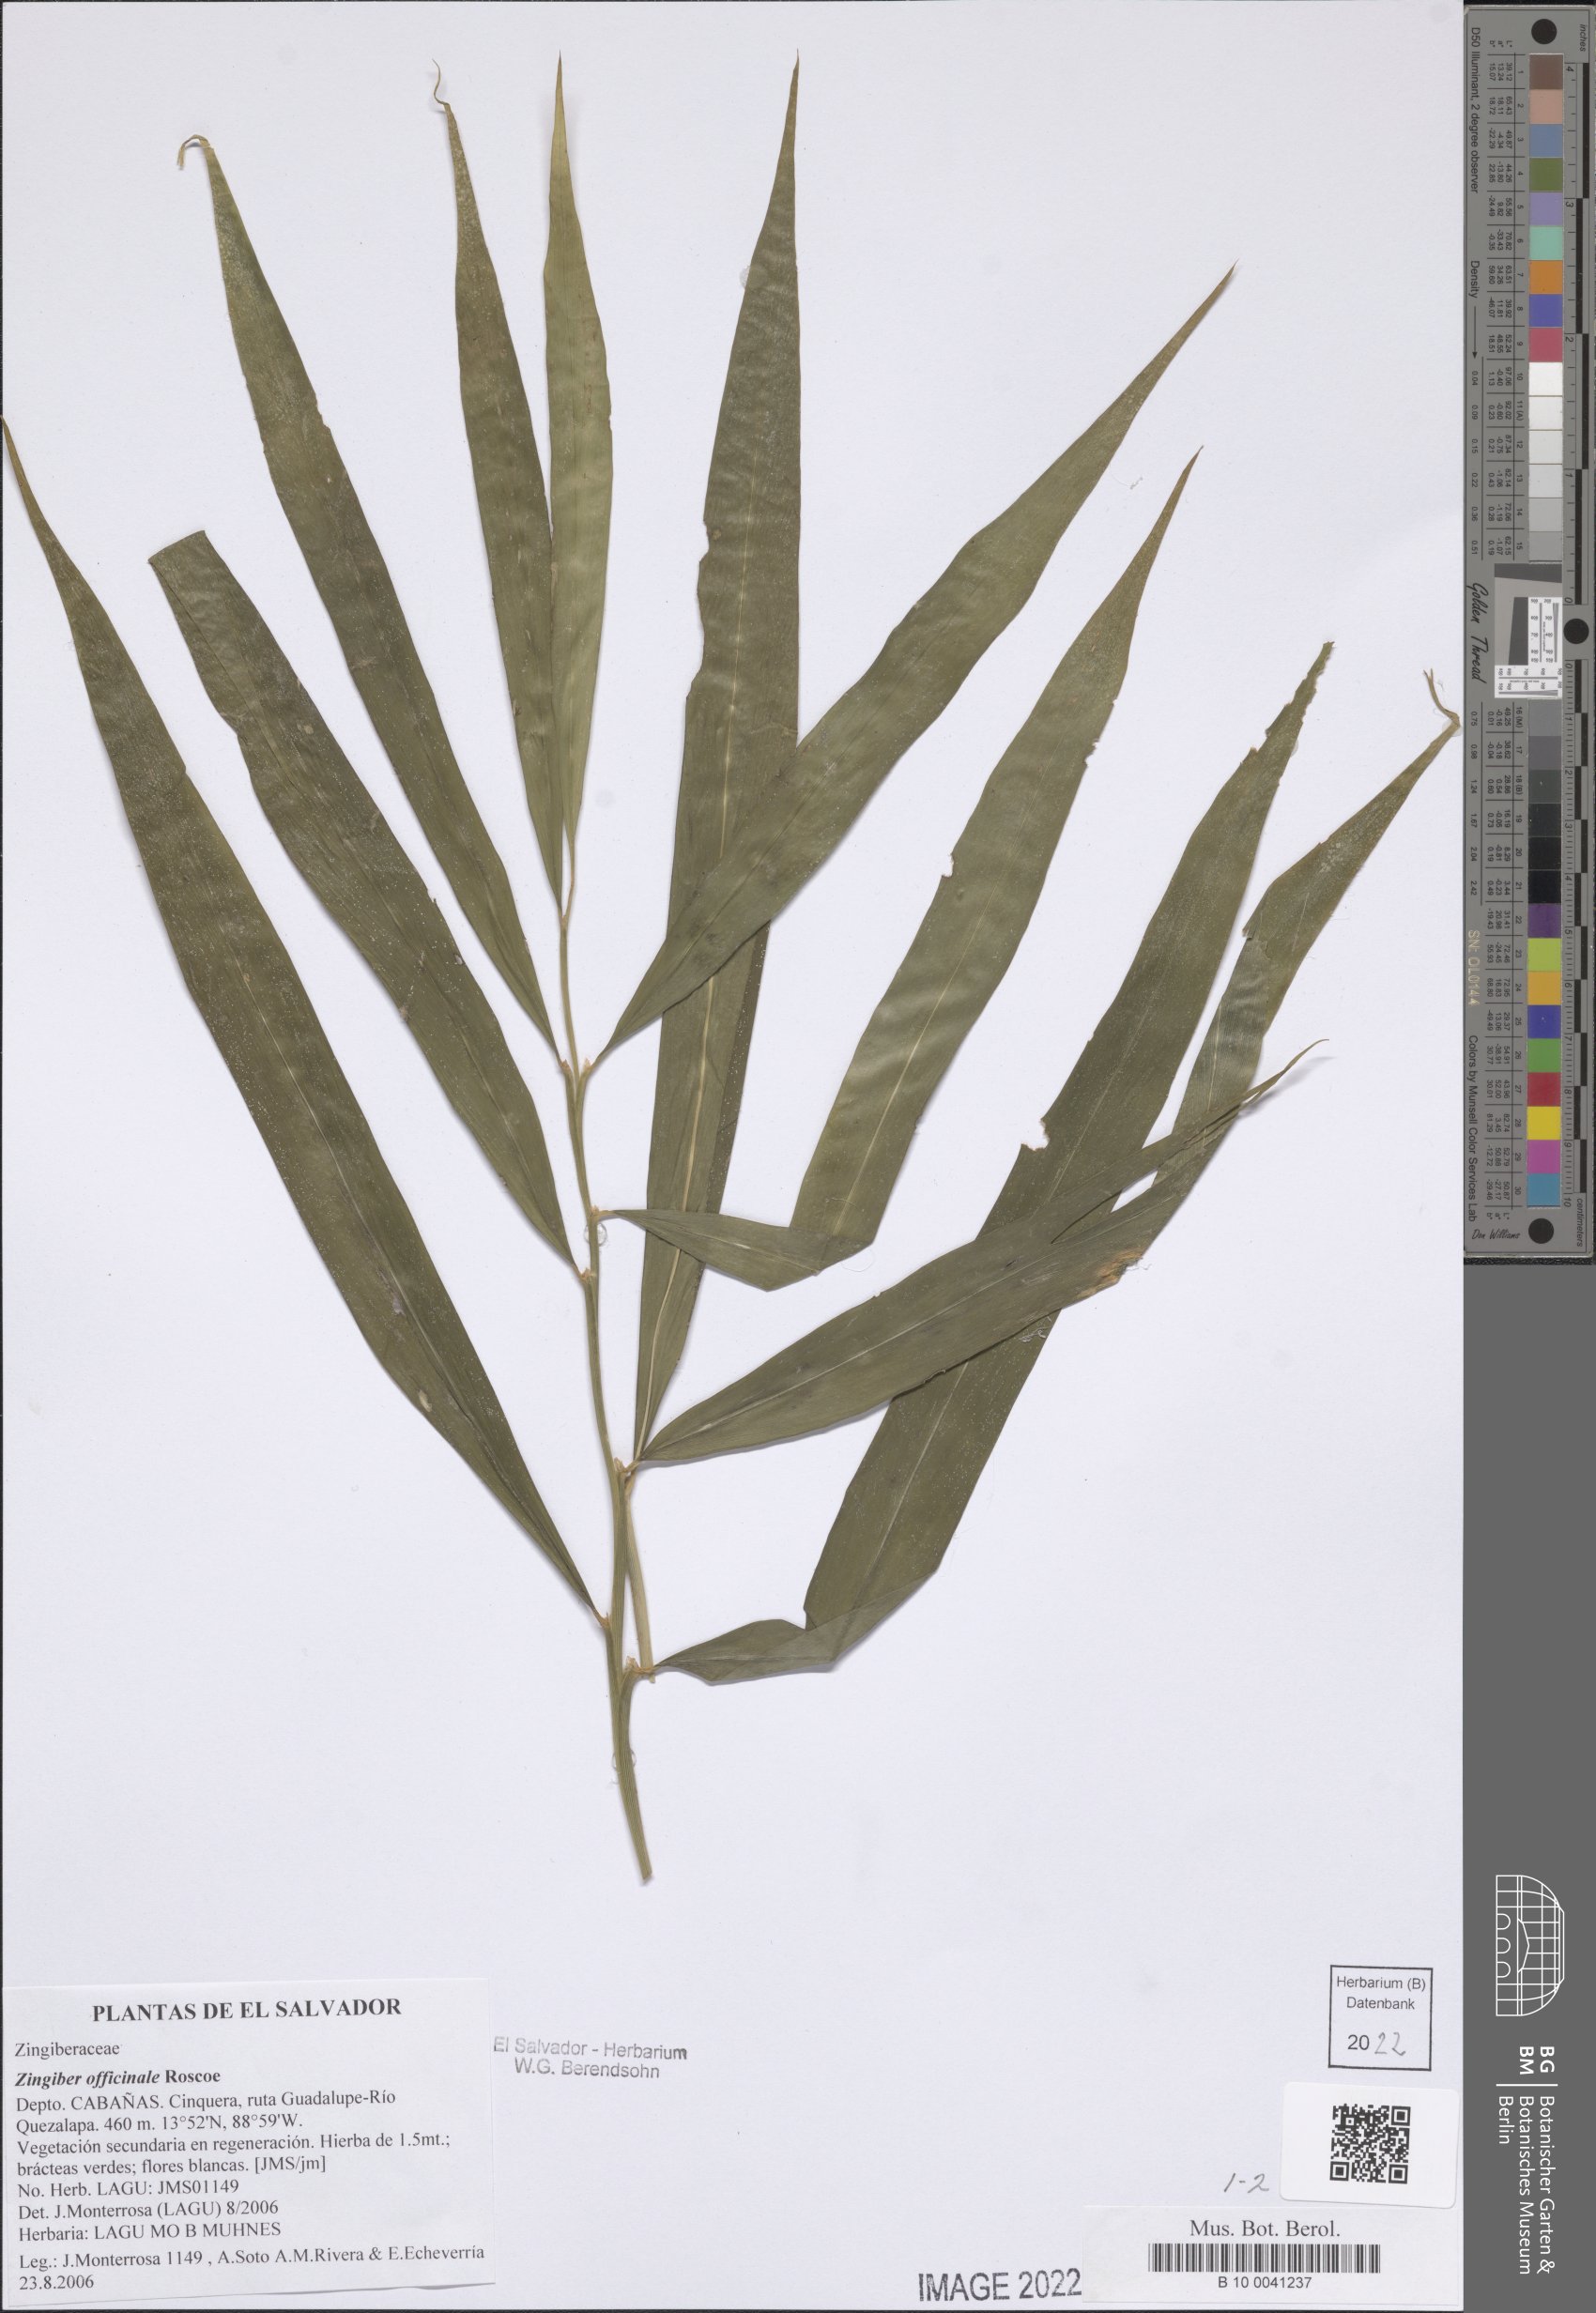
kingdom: Plantae
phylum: Tracheophyta
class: Liliopsida
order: Zingiberales
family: Zingiberaceae
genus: Zingiber
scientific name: Zingiber officinale
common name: Ginger
